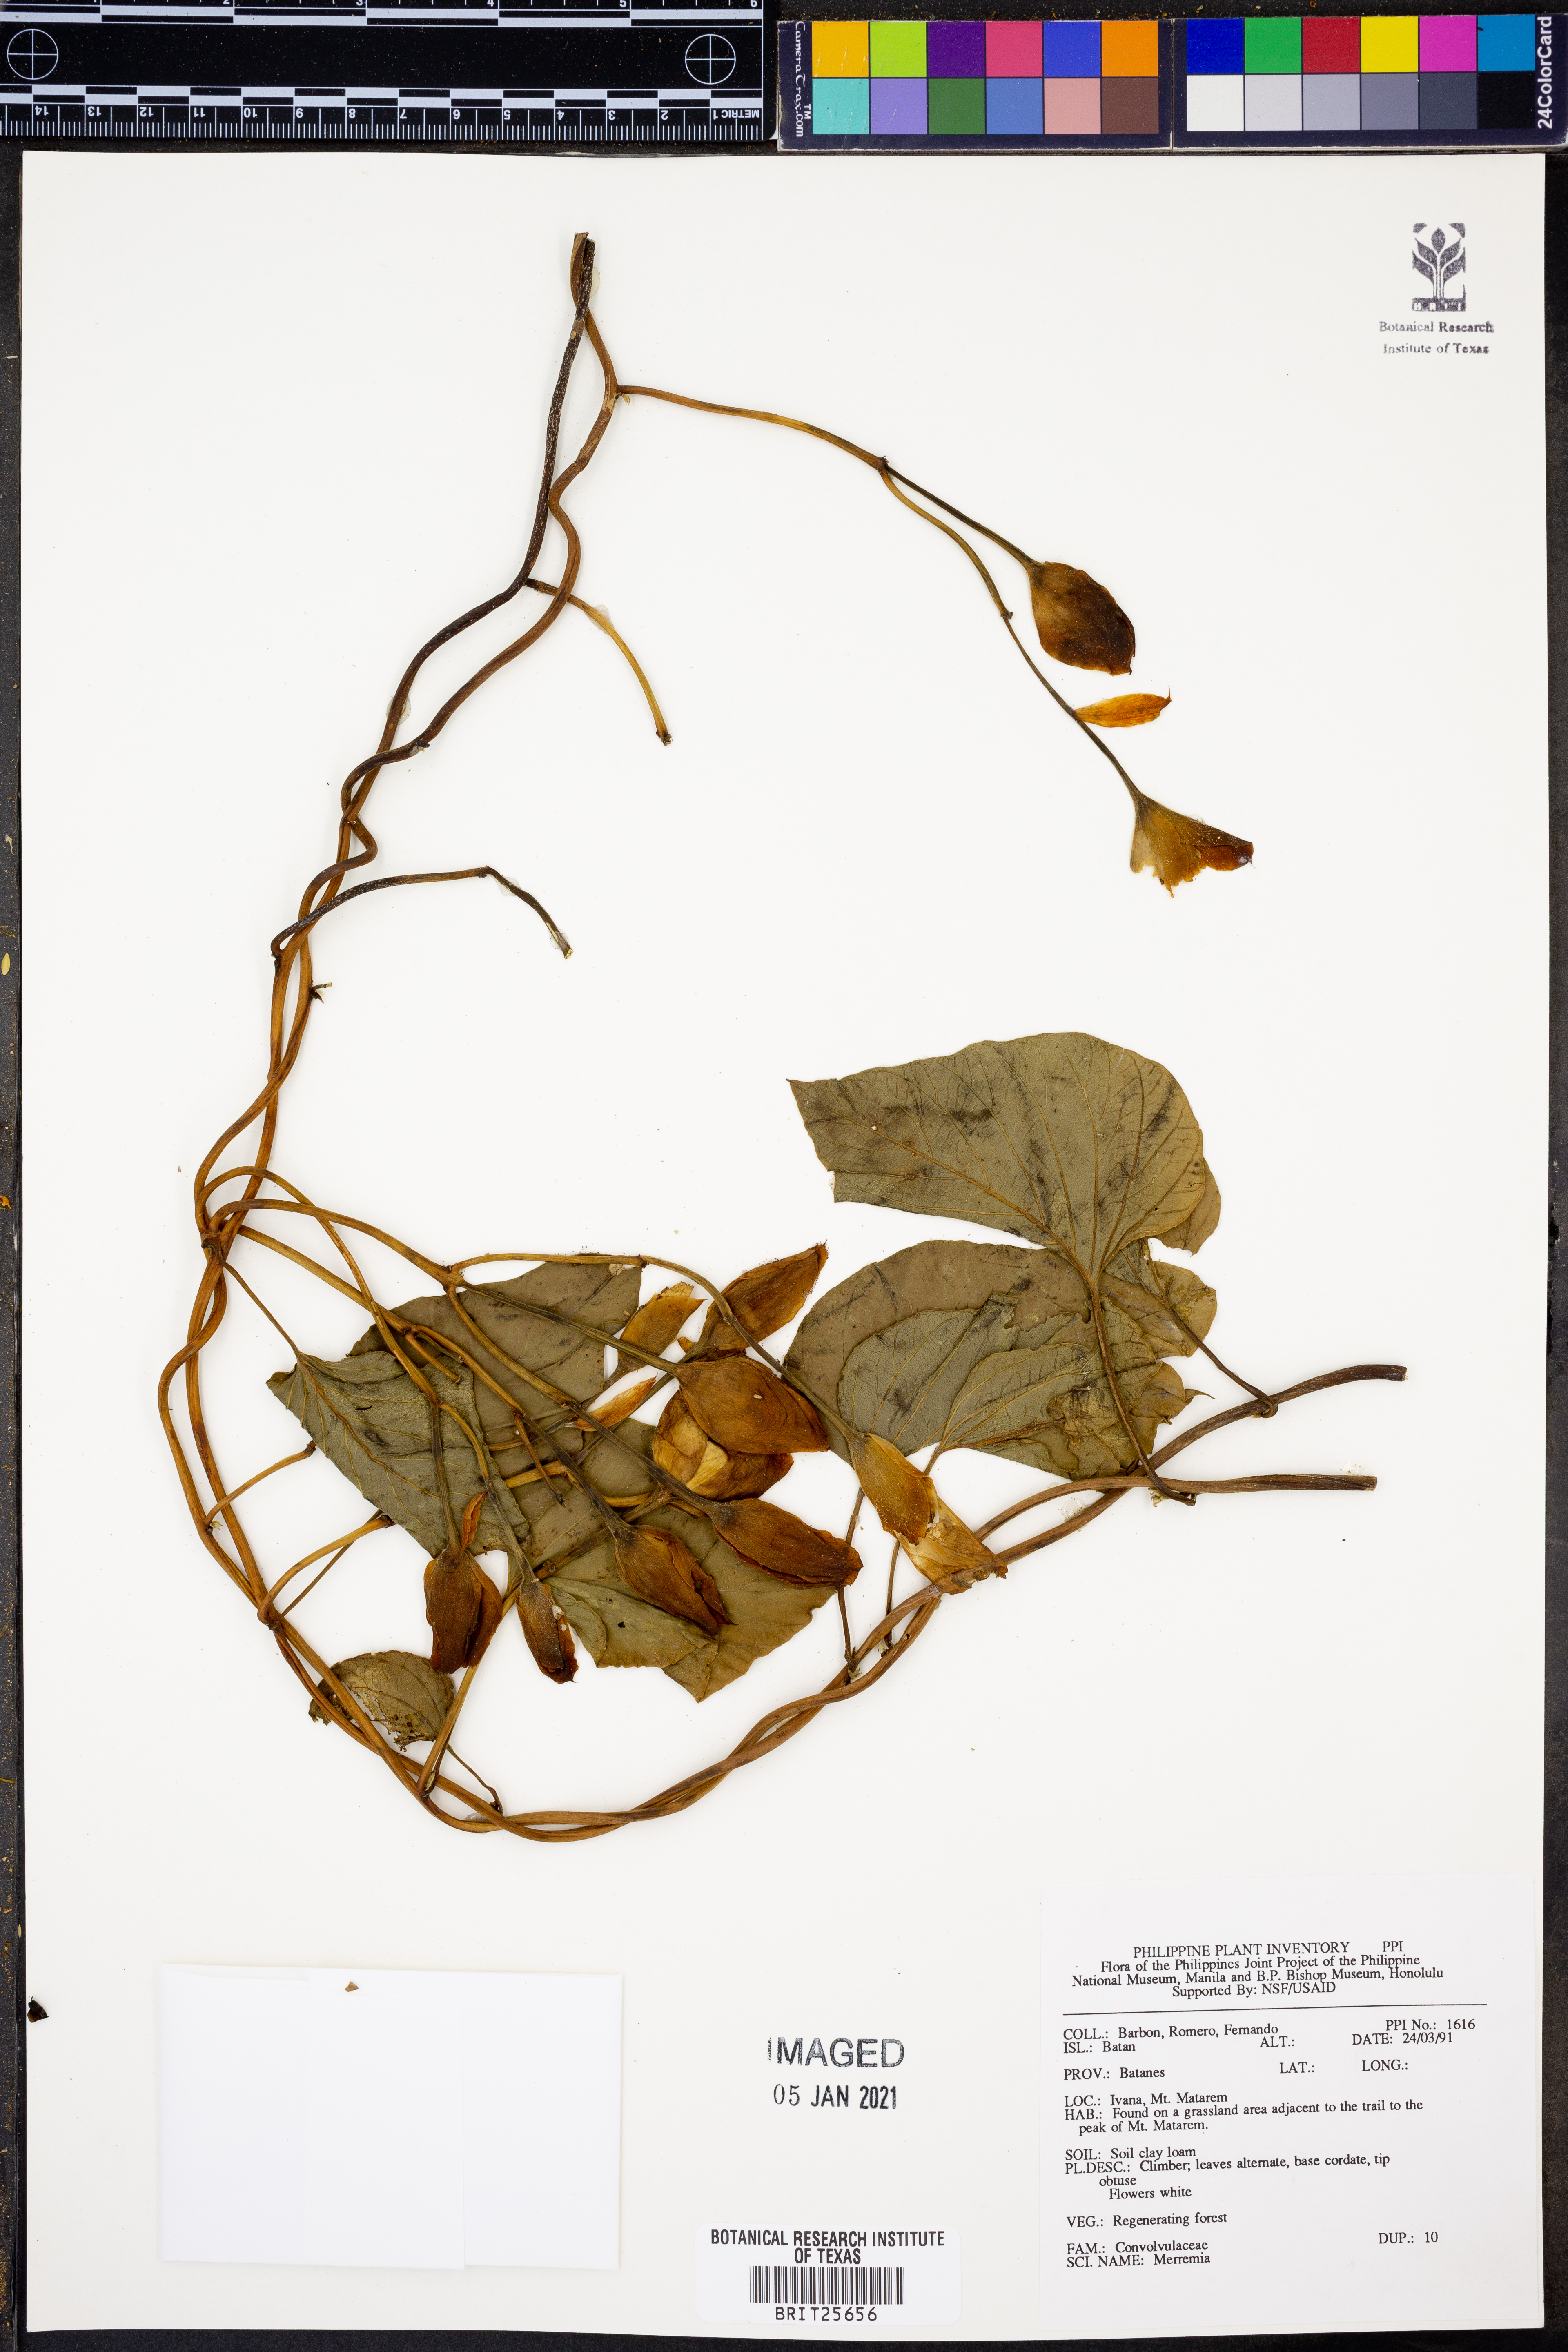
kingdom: Plantae
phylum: Tracheophyta
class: Magnoliopsida
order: Solanales
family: Convolvulaceae
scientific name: Convolvulaceae
